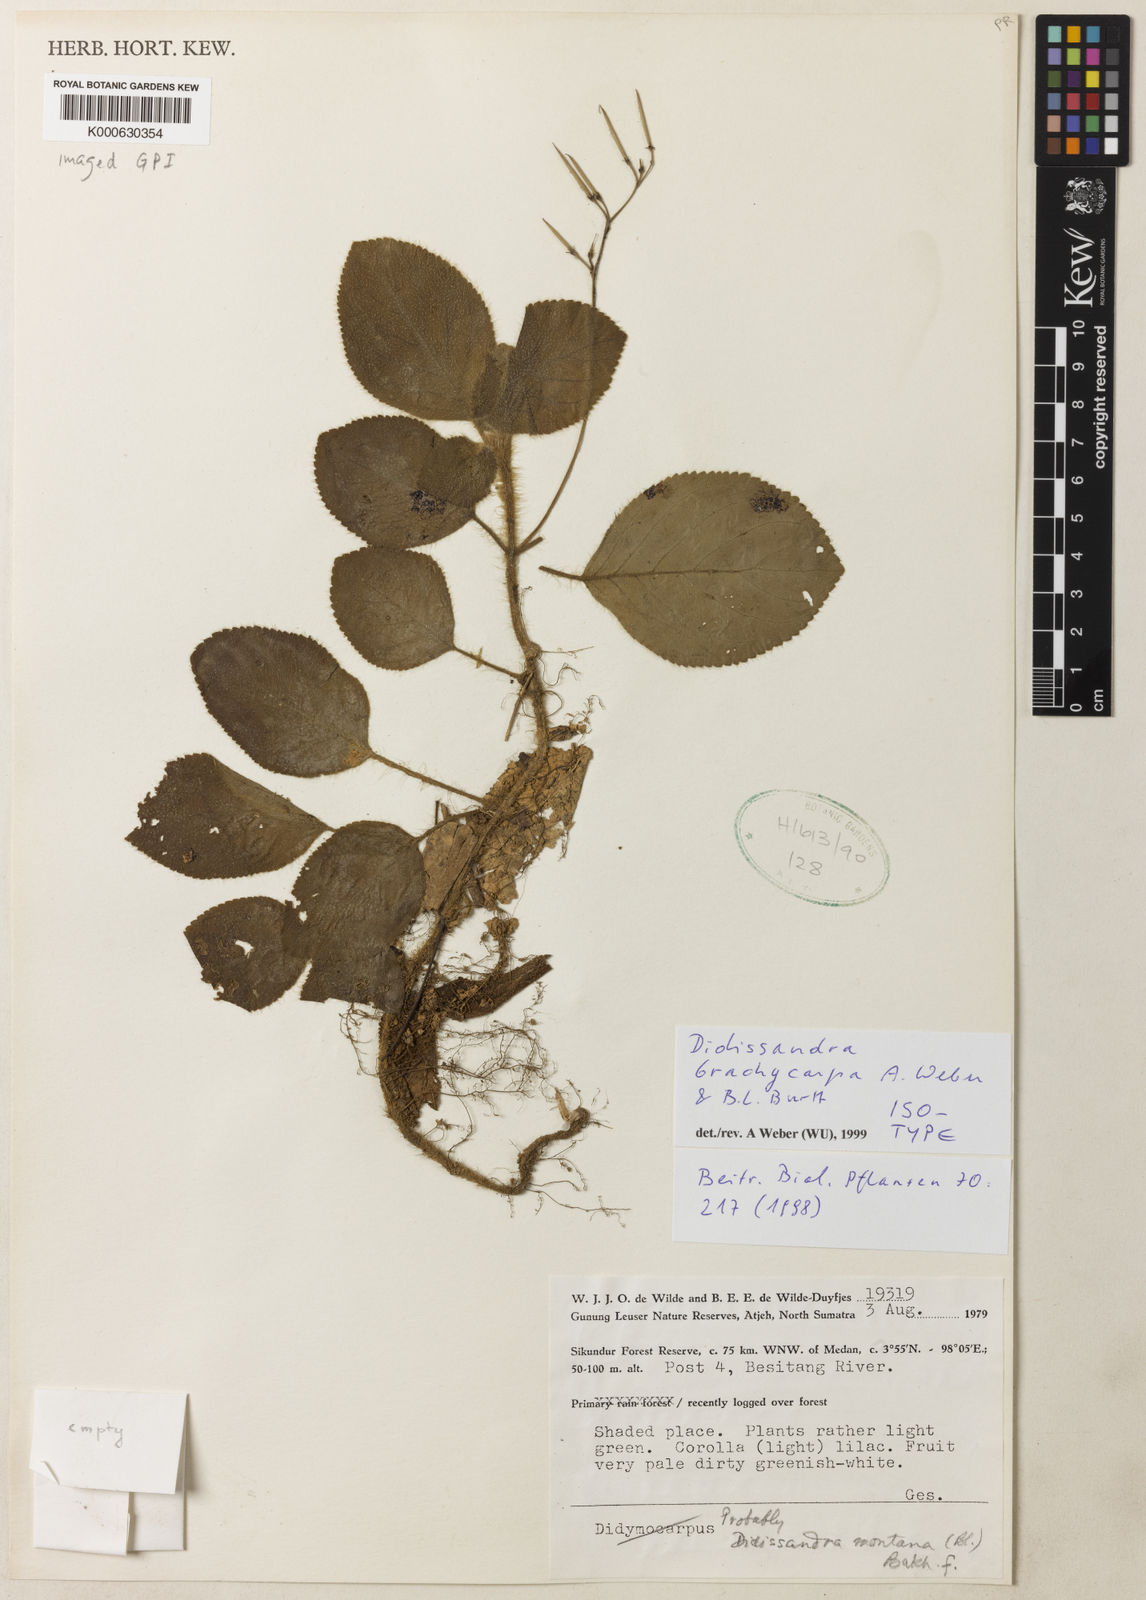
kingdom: Plantae
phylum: Tracheophyta
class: Magnoliopsida
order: Lamiales
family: Gesneriaceae
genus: Didissandra
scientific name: Didissandra brachycarpa
